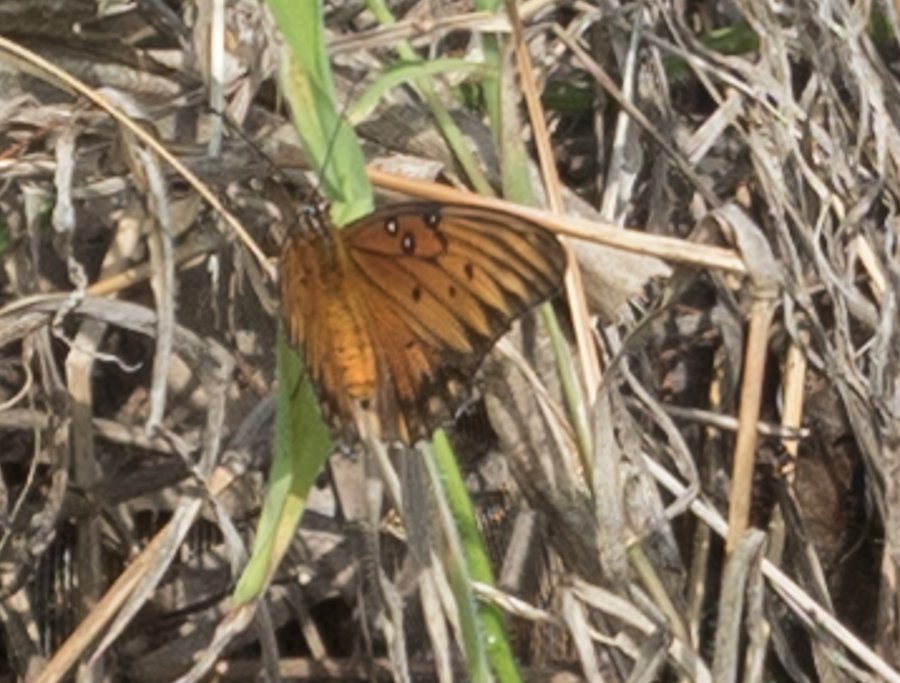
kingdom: Animalia
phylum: Arthropoda
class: Insecta
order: Lepidoptera
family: Nymphalidae
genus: Dione
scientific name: Dione vanillae
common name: Gulf Fritillary
